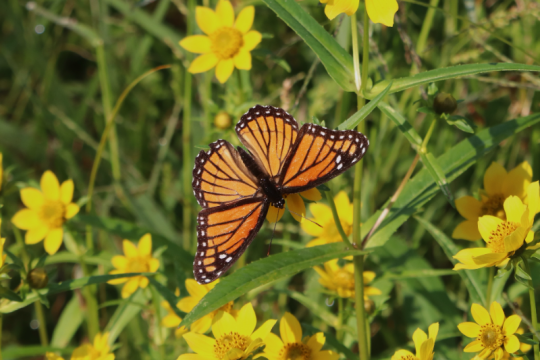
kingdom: Animalia
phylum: Arthropoda
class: Insecta
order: Lepidoptera
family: Nymphalidae
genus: Limenitis
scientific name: Limenitis archippus
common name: Viceroy
